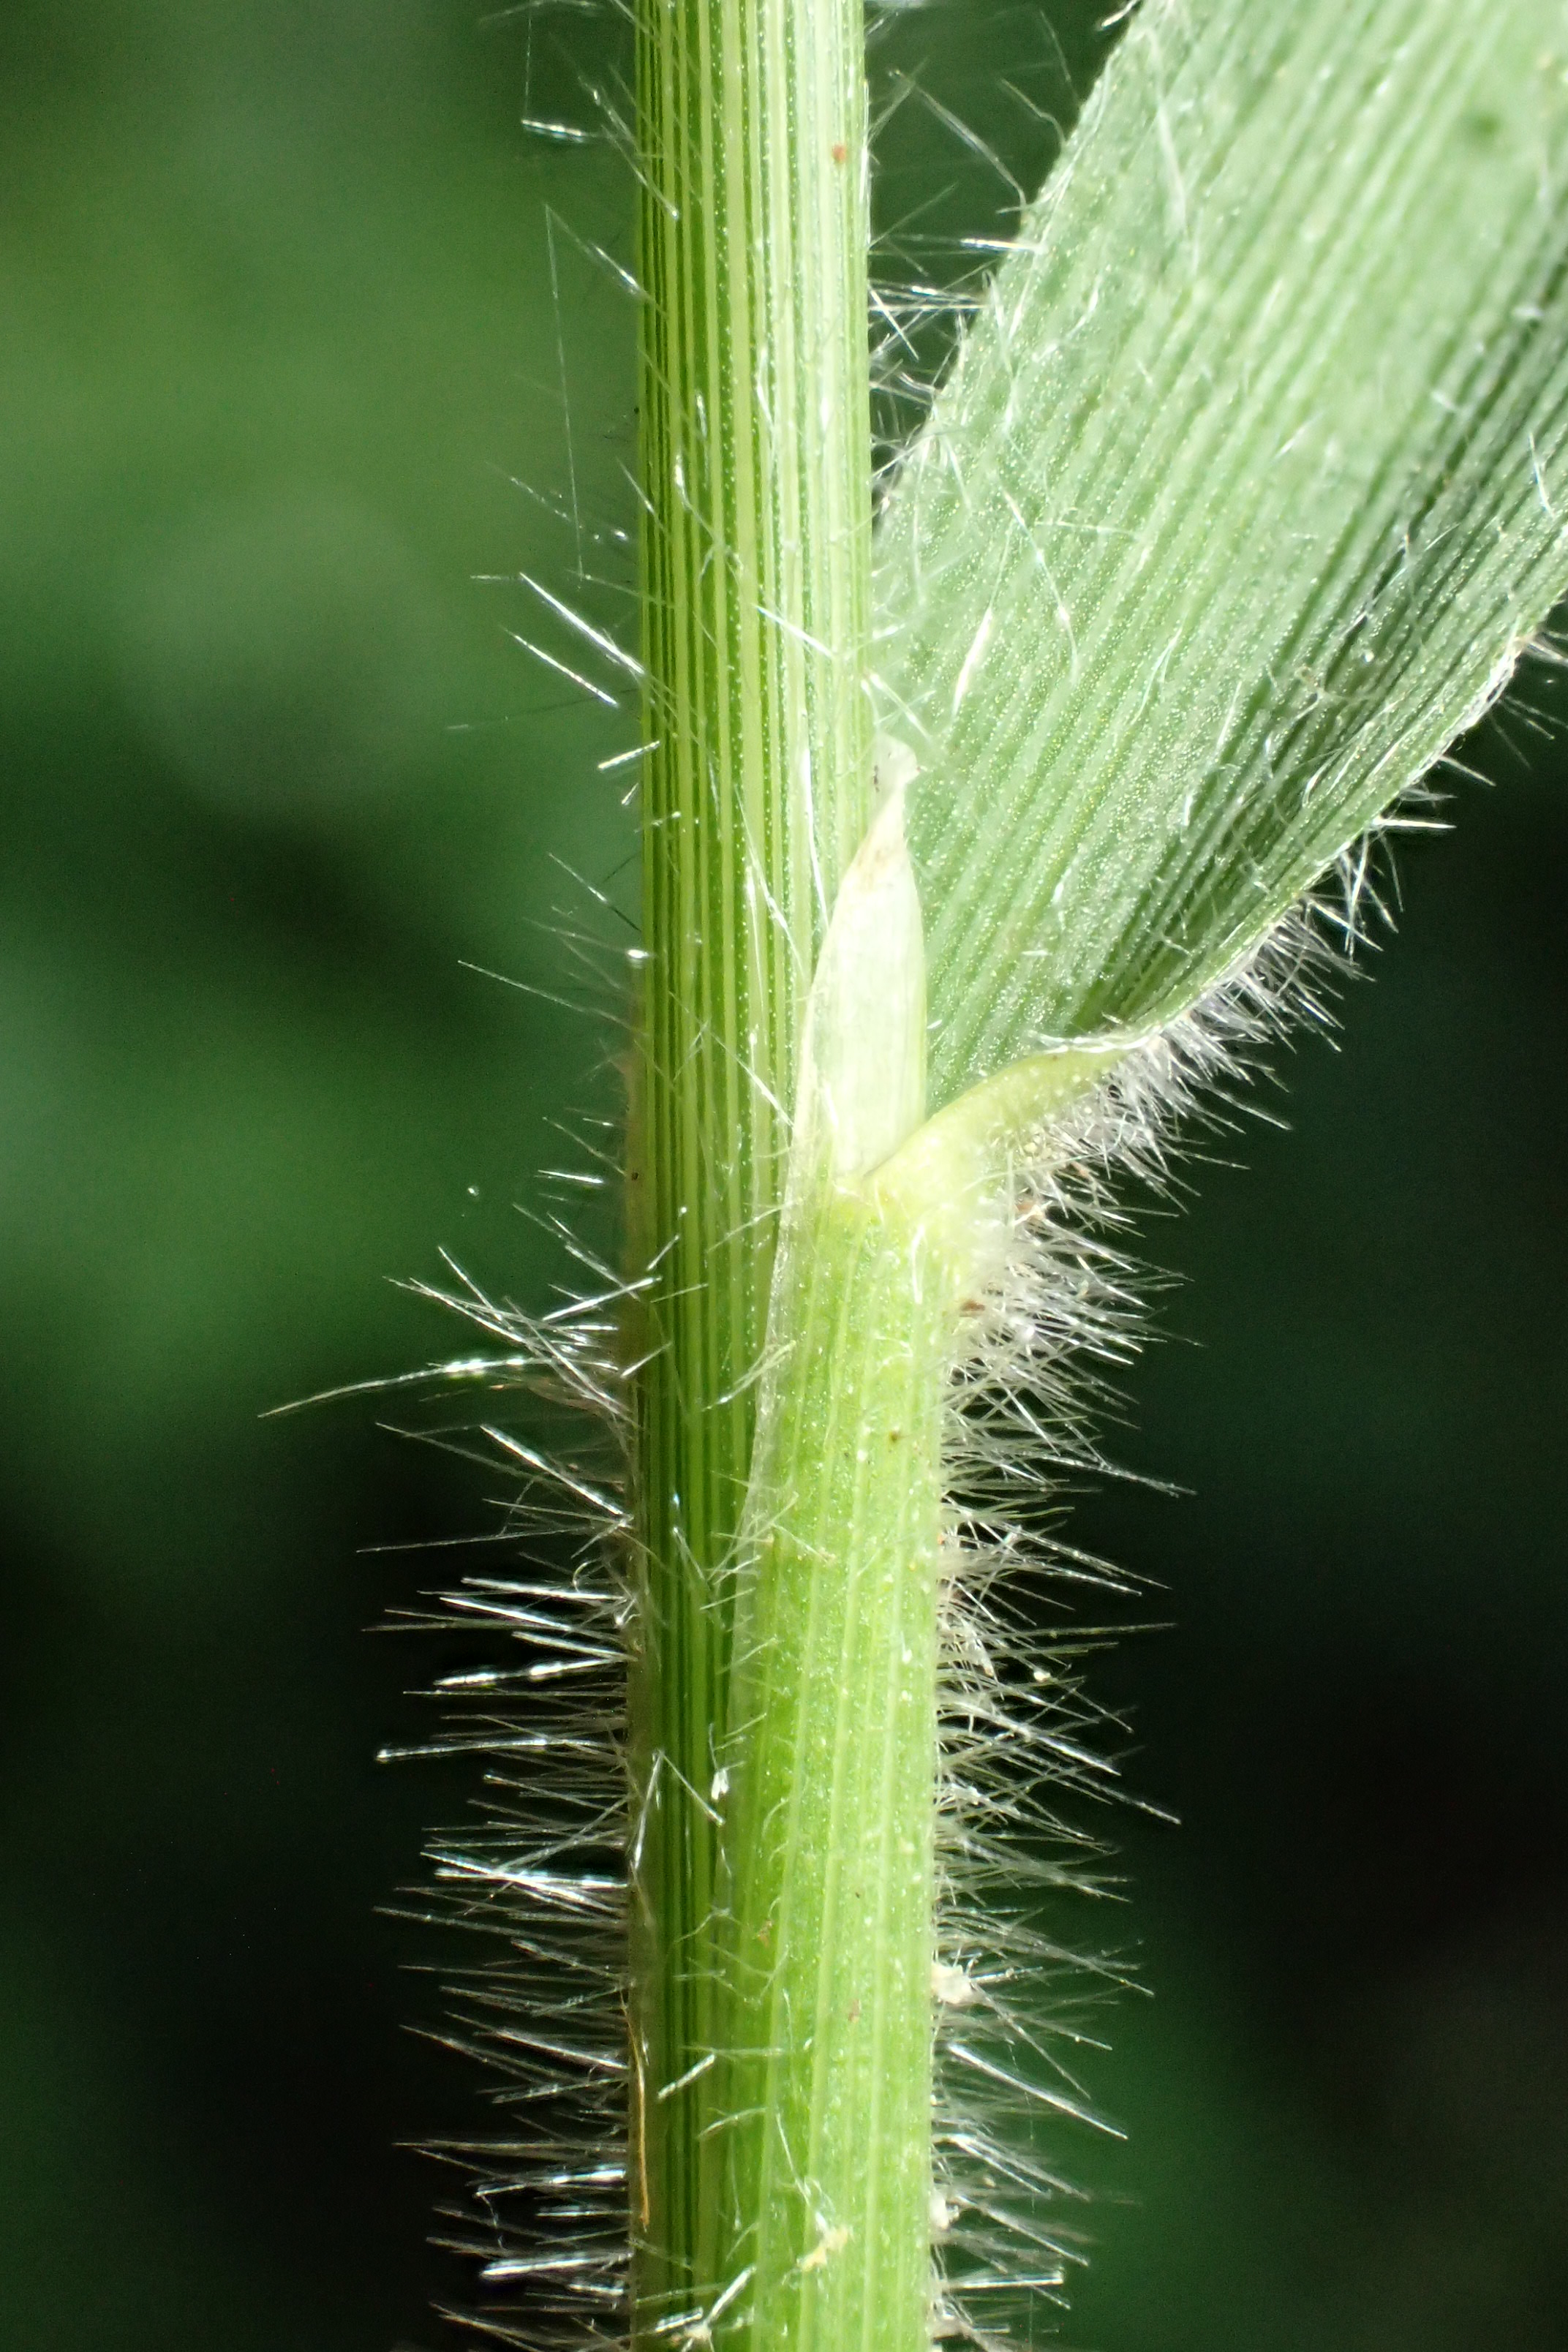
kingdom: Plantae
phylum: Tracheophyta
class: Liliopsida
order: Poales
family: Poaceae
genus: Brachypodium
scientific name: Brachypodium sylvaticum
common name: Skov-stilkaks
